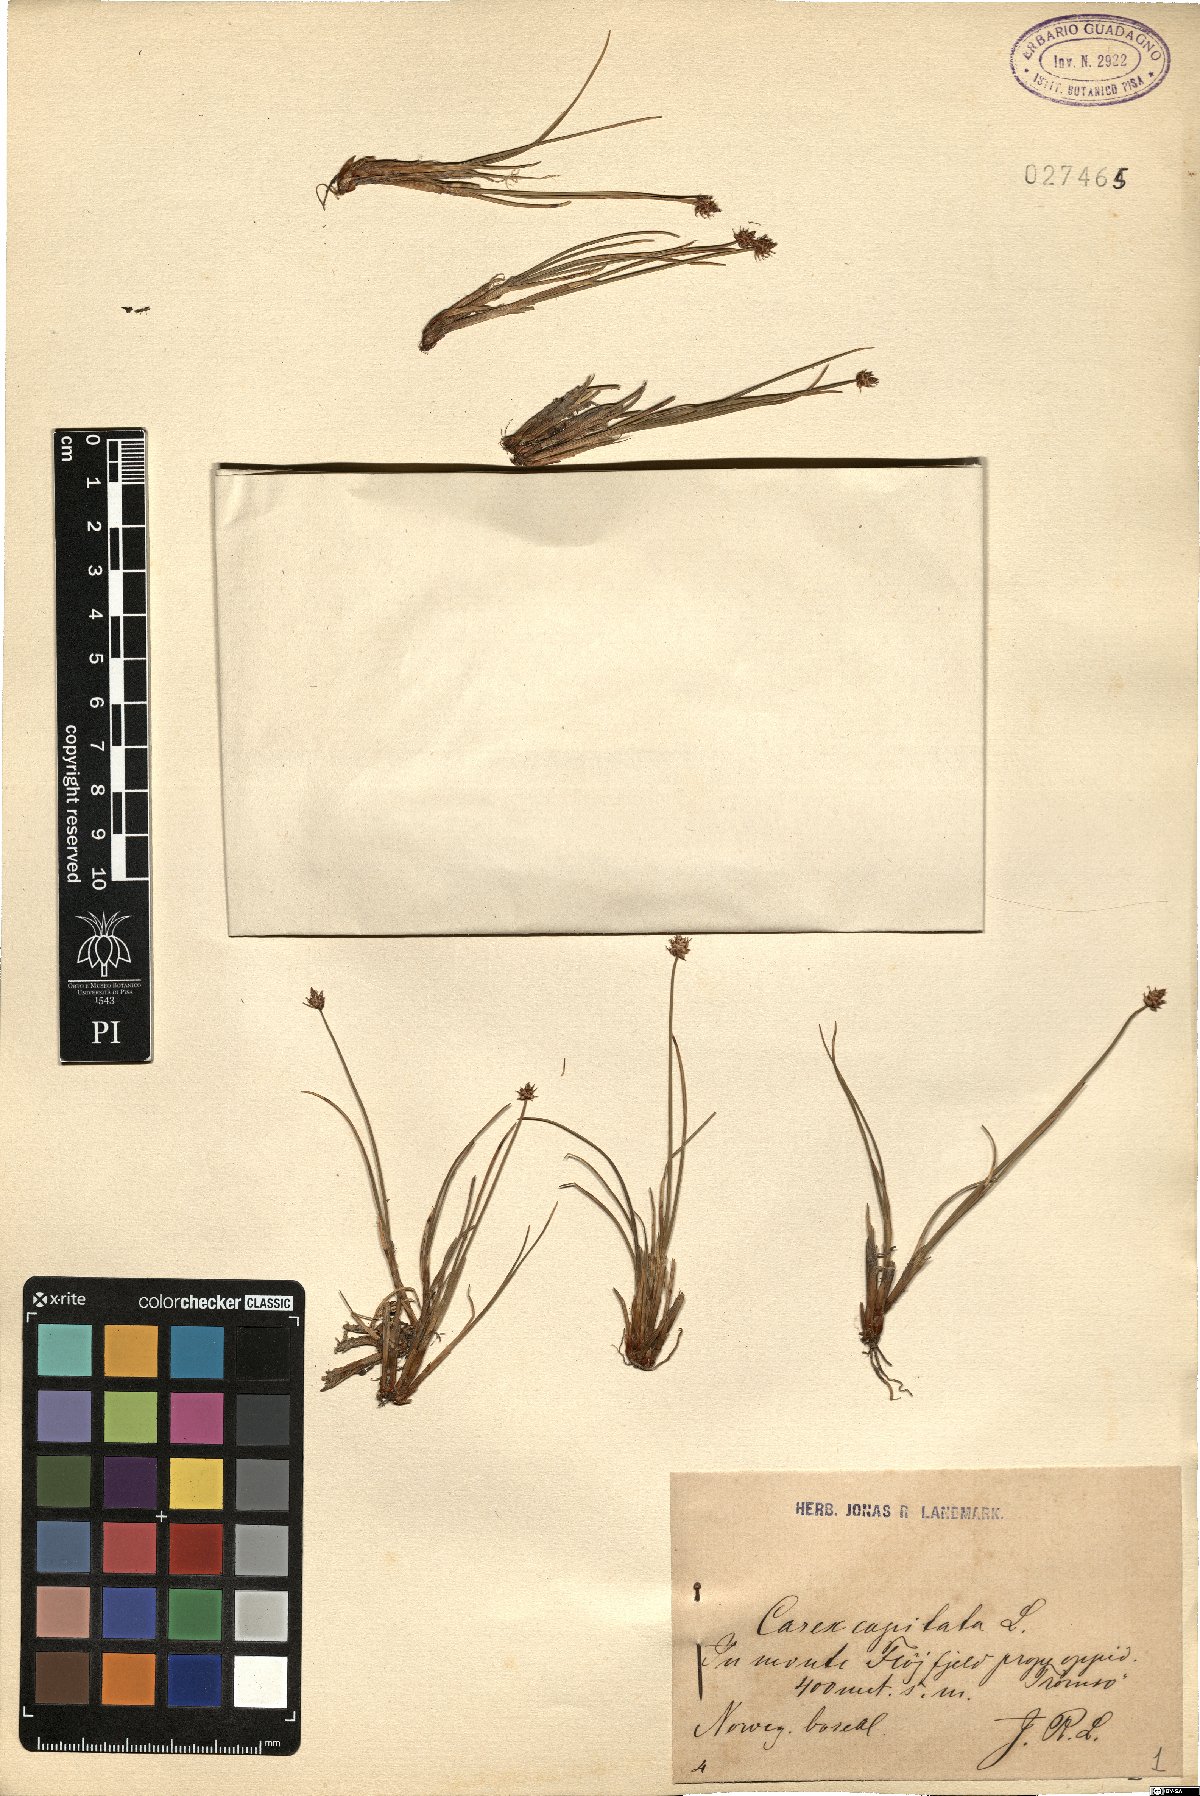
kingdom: Plantae
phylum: Tracheophyta
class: Liliopsida
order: Poales
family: Cyperaceae
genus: Carex
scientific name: Carex capitata
